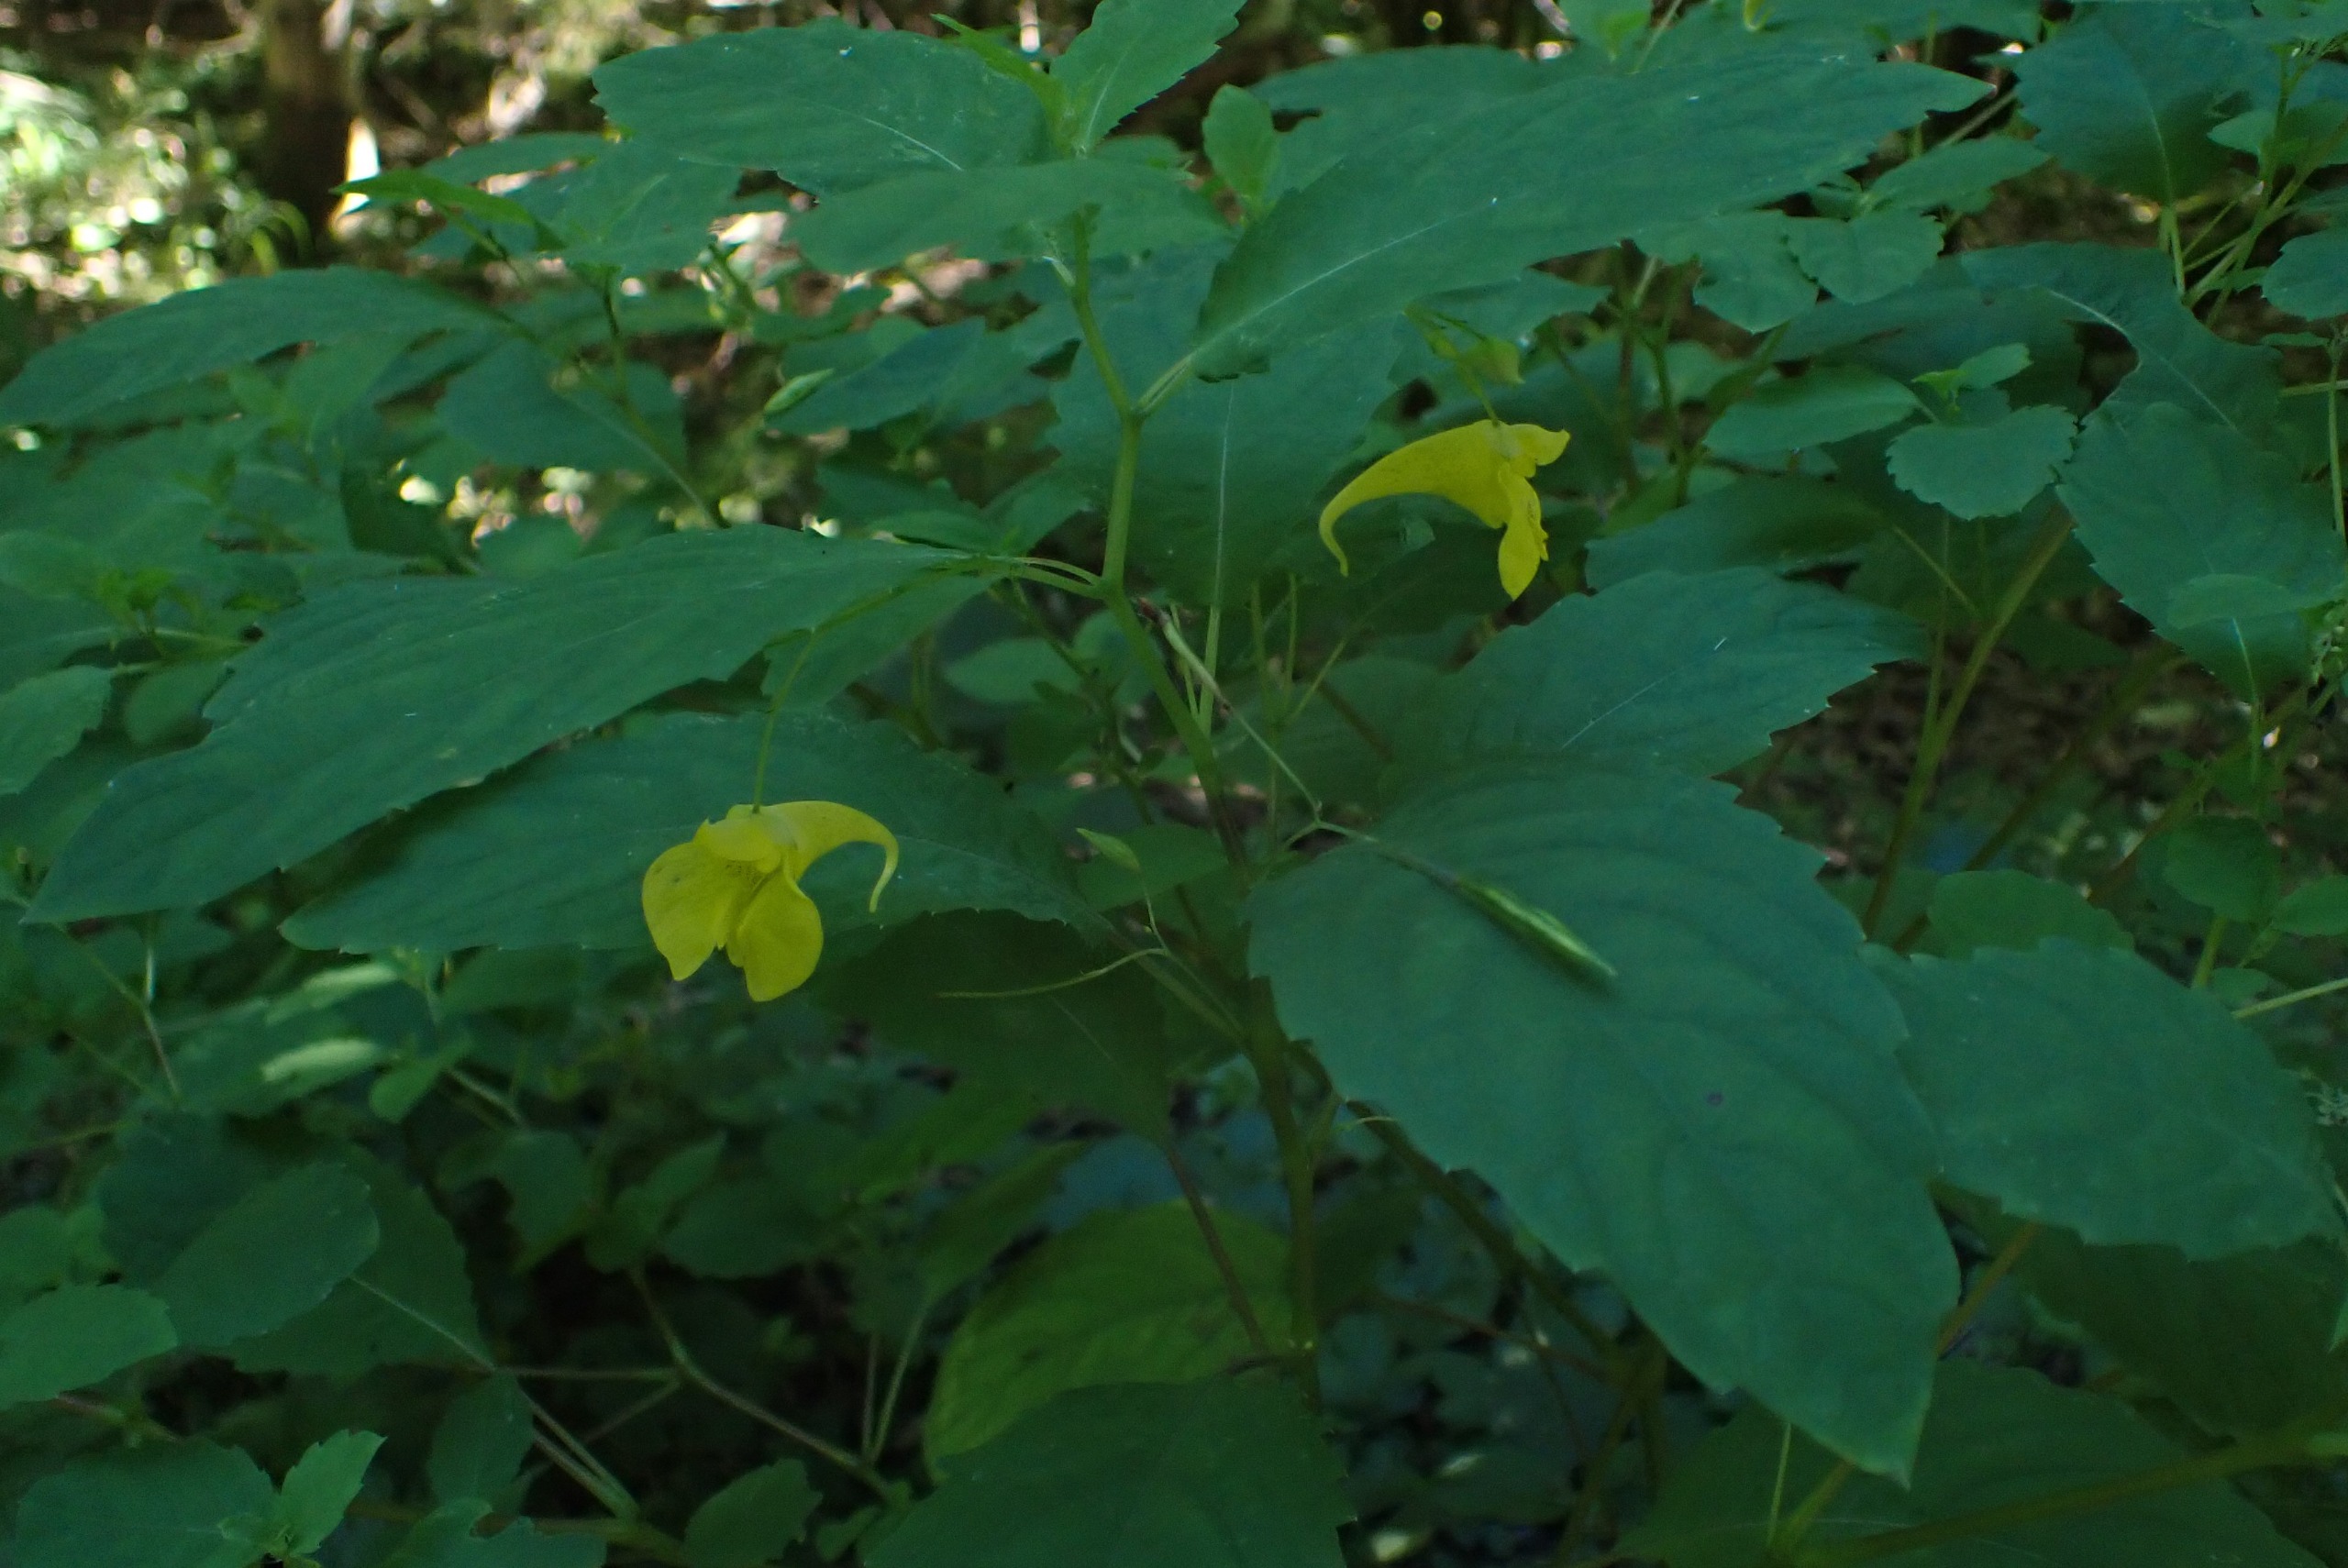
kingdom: Plantae
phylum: Tracheophyta
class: Magnoliopsida
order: Ericales
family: Balsaminaceae
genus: Impatiens
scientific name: Impatiens noli-tangere
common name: Spring-balsamin
